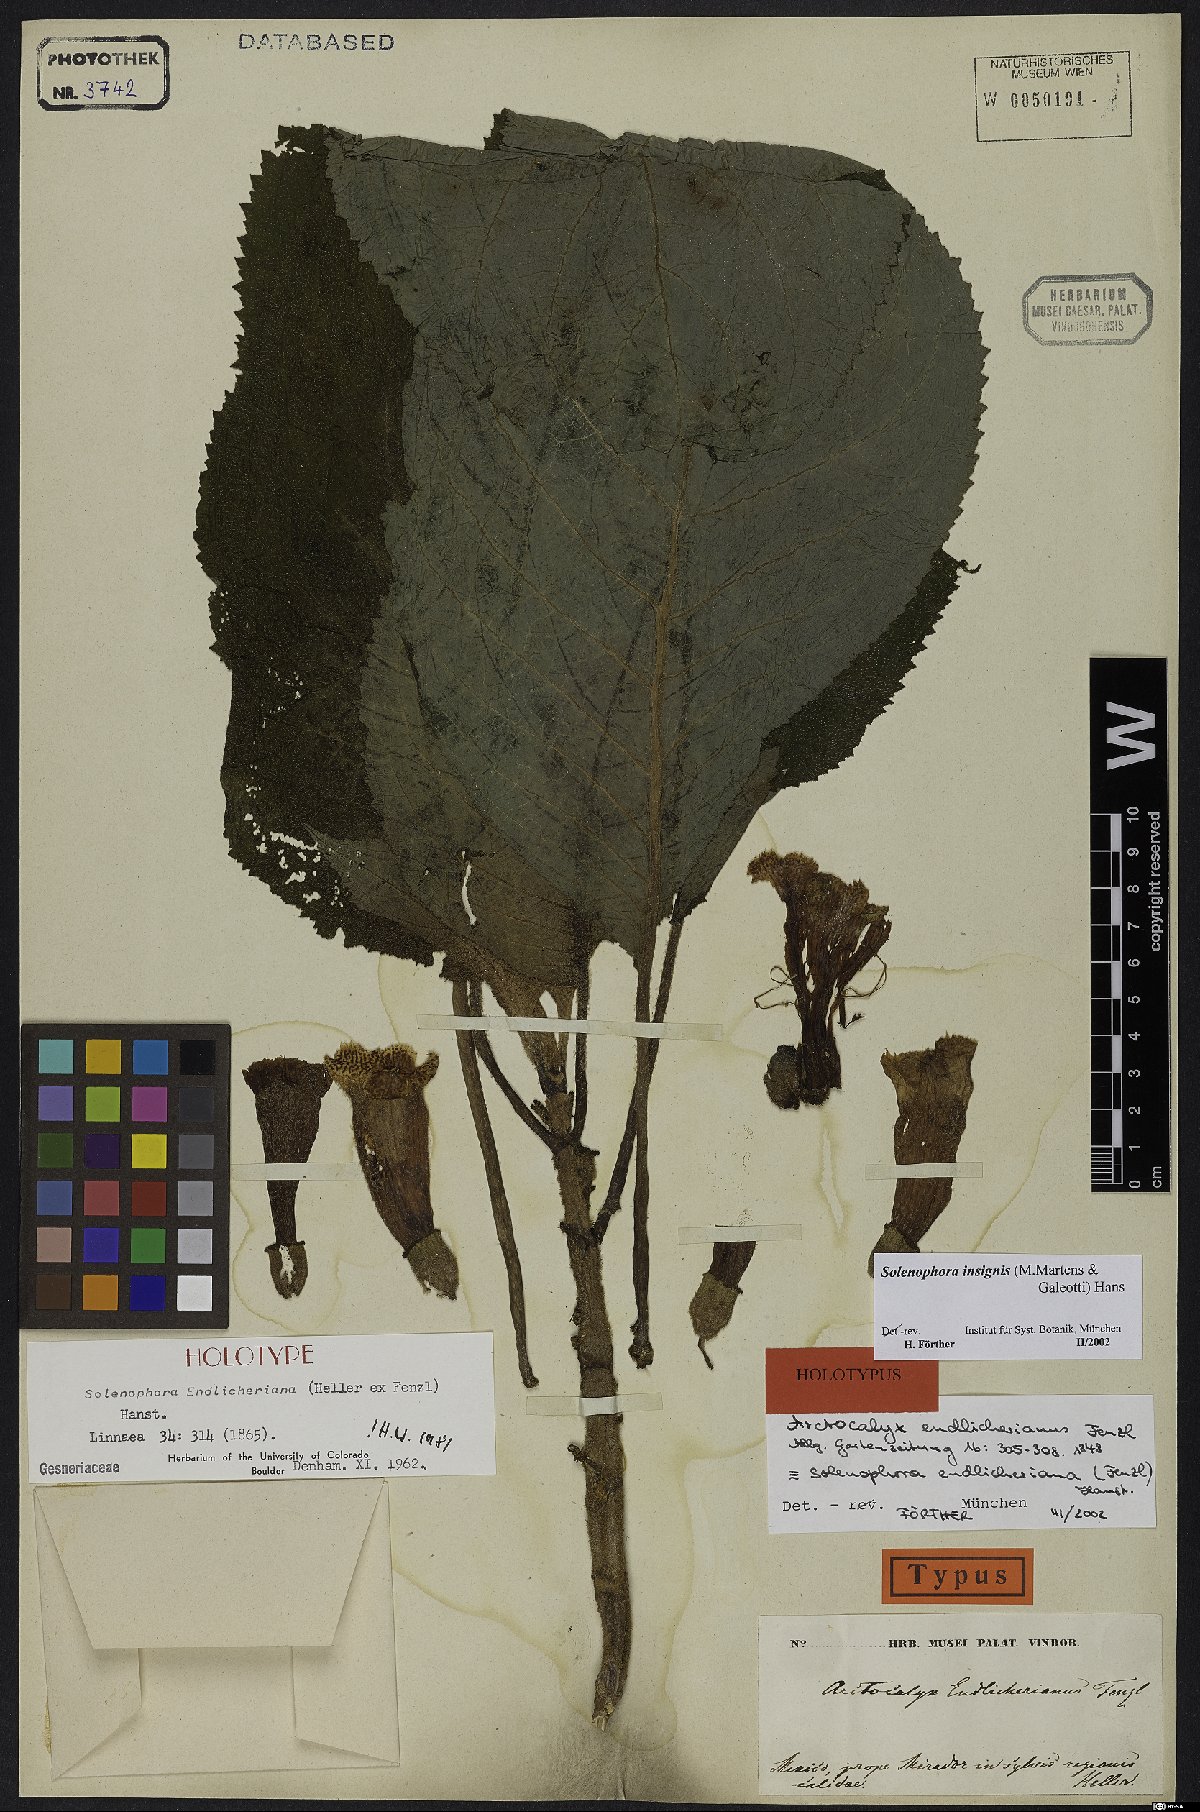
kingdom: Plantae
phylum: Tracheophyta
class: Magnoliopsida
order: Lamiales
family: Gesneriaceae
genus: Solenophora
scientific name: Solenophora insignis
